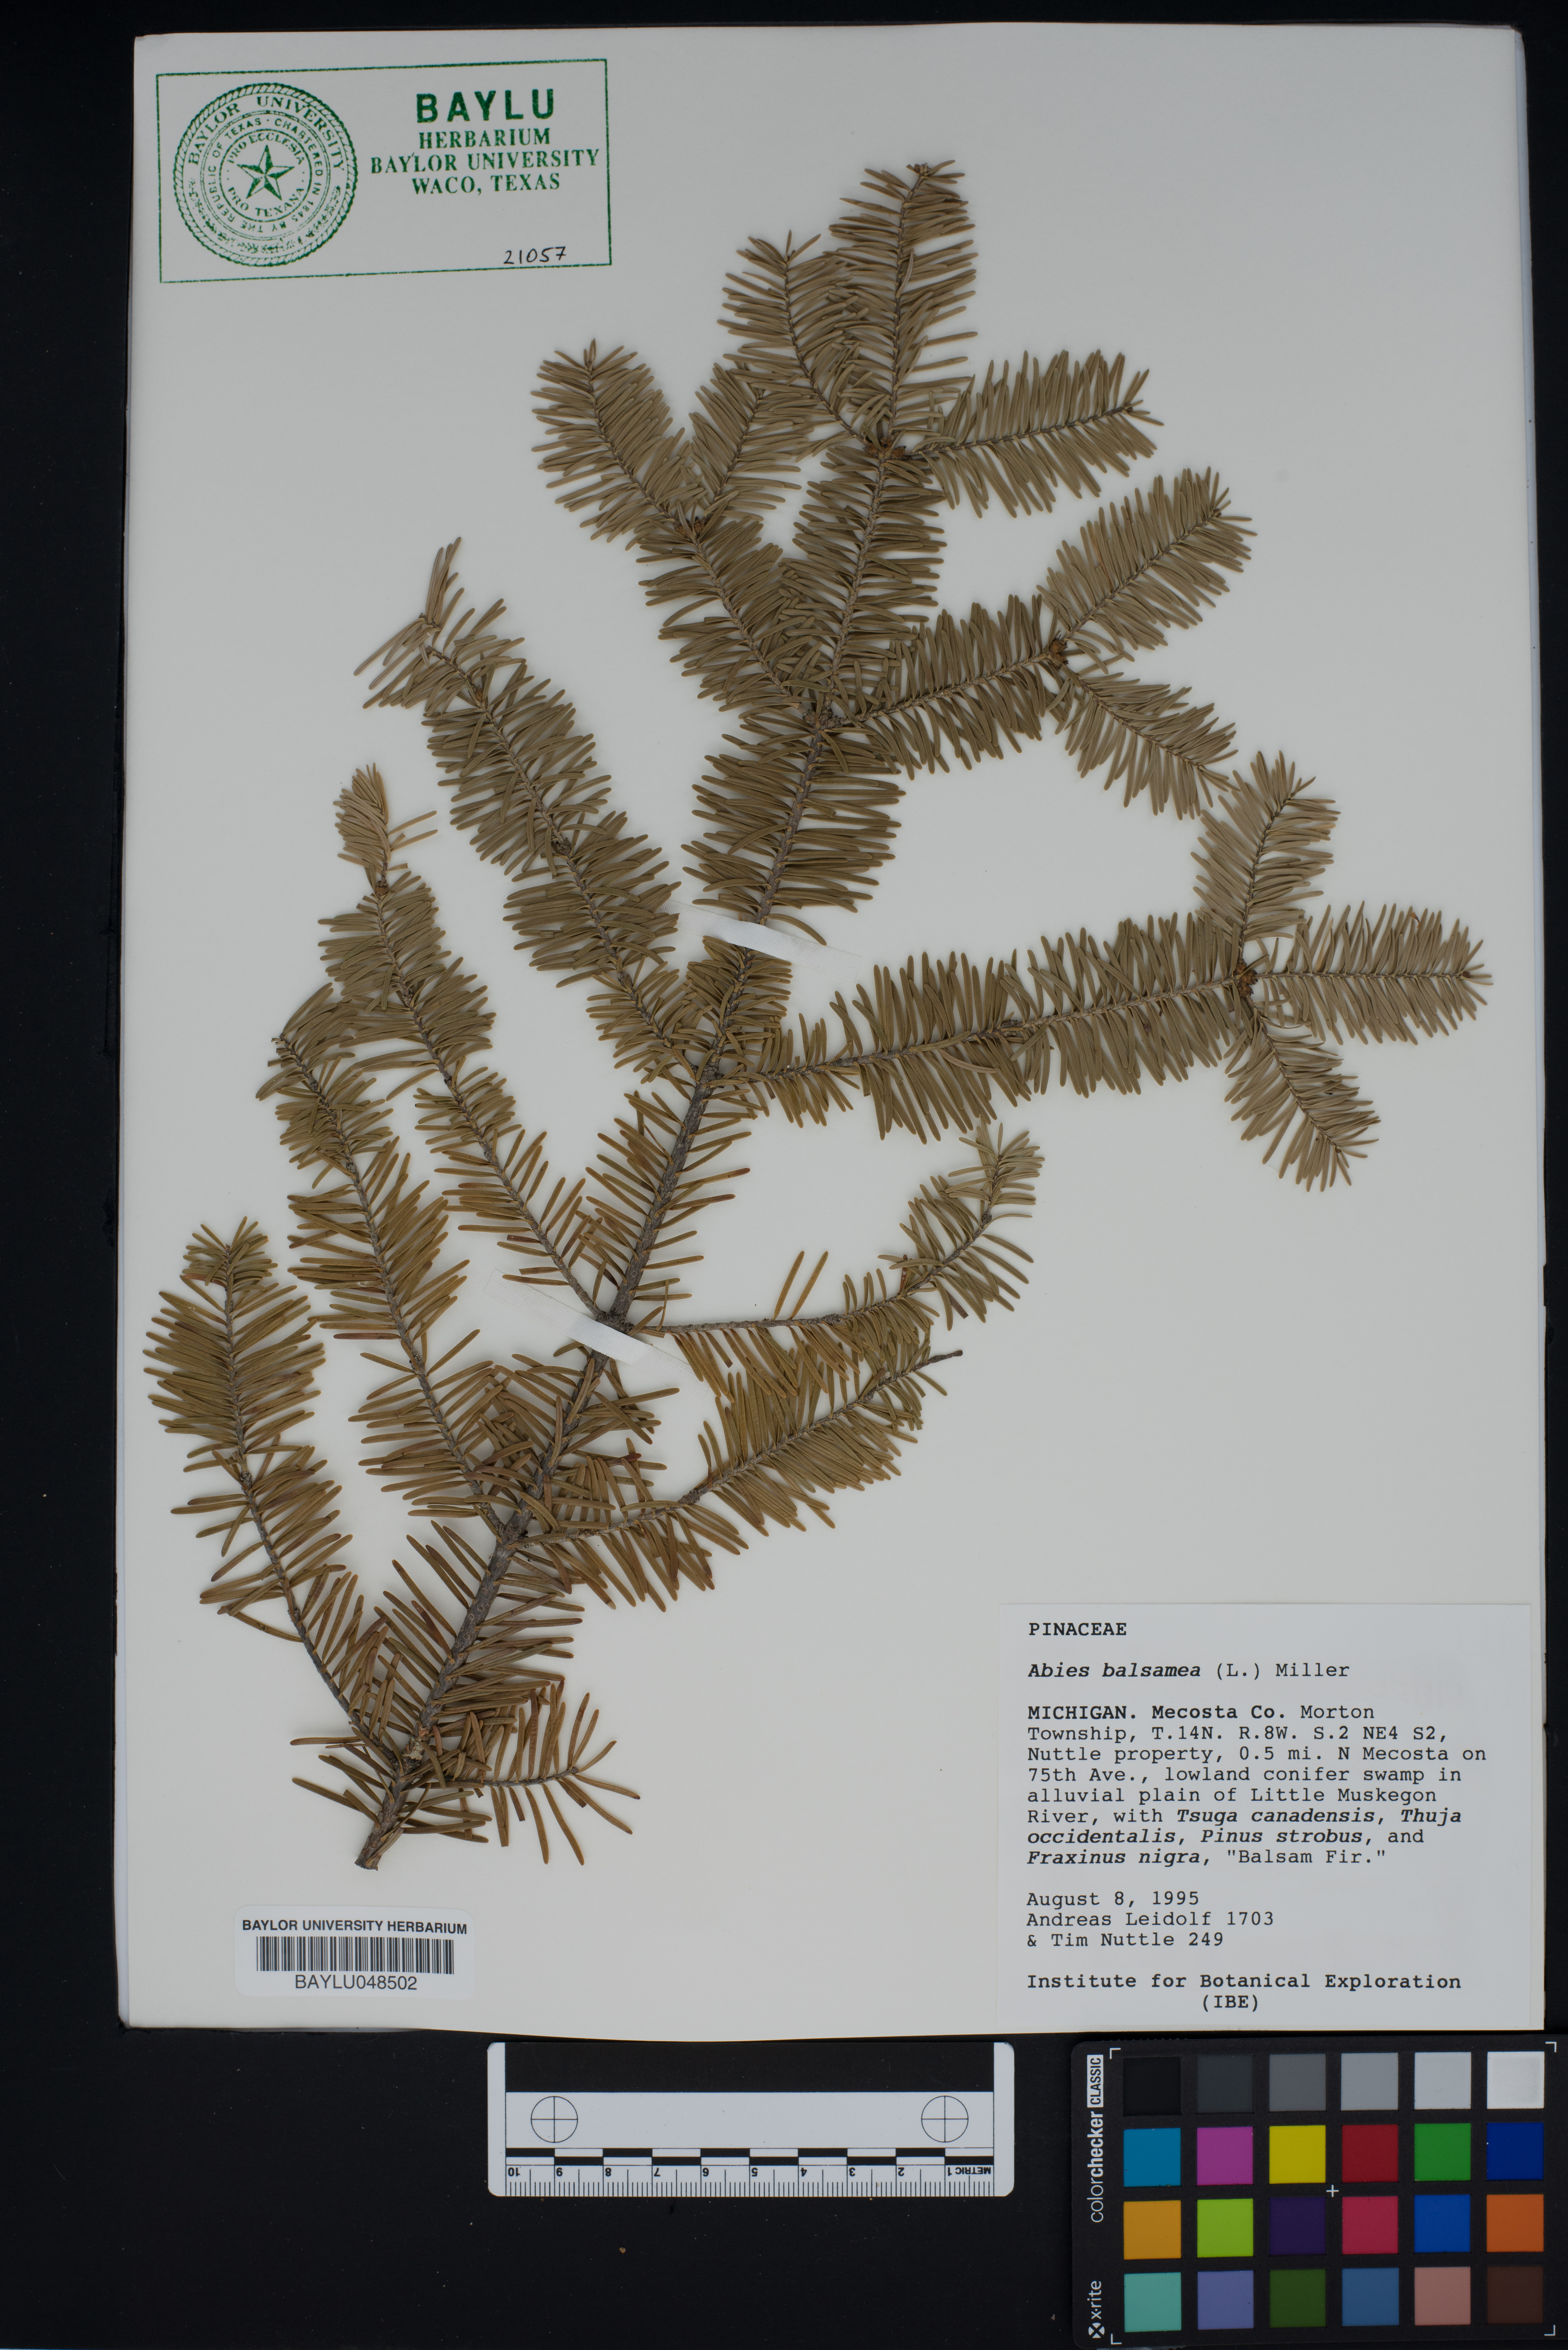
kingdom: Plantae
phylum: Tracheophyta
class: Pinopsida
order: Pinales
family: Pinaceae
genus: Abies
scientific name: Abies balsamea
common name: Balsam fir
